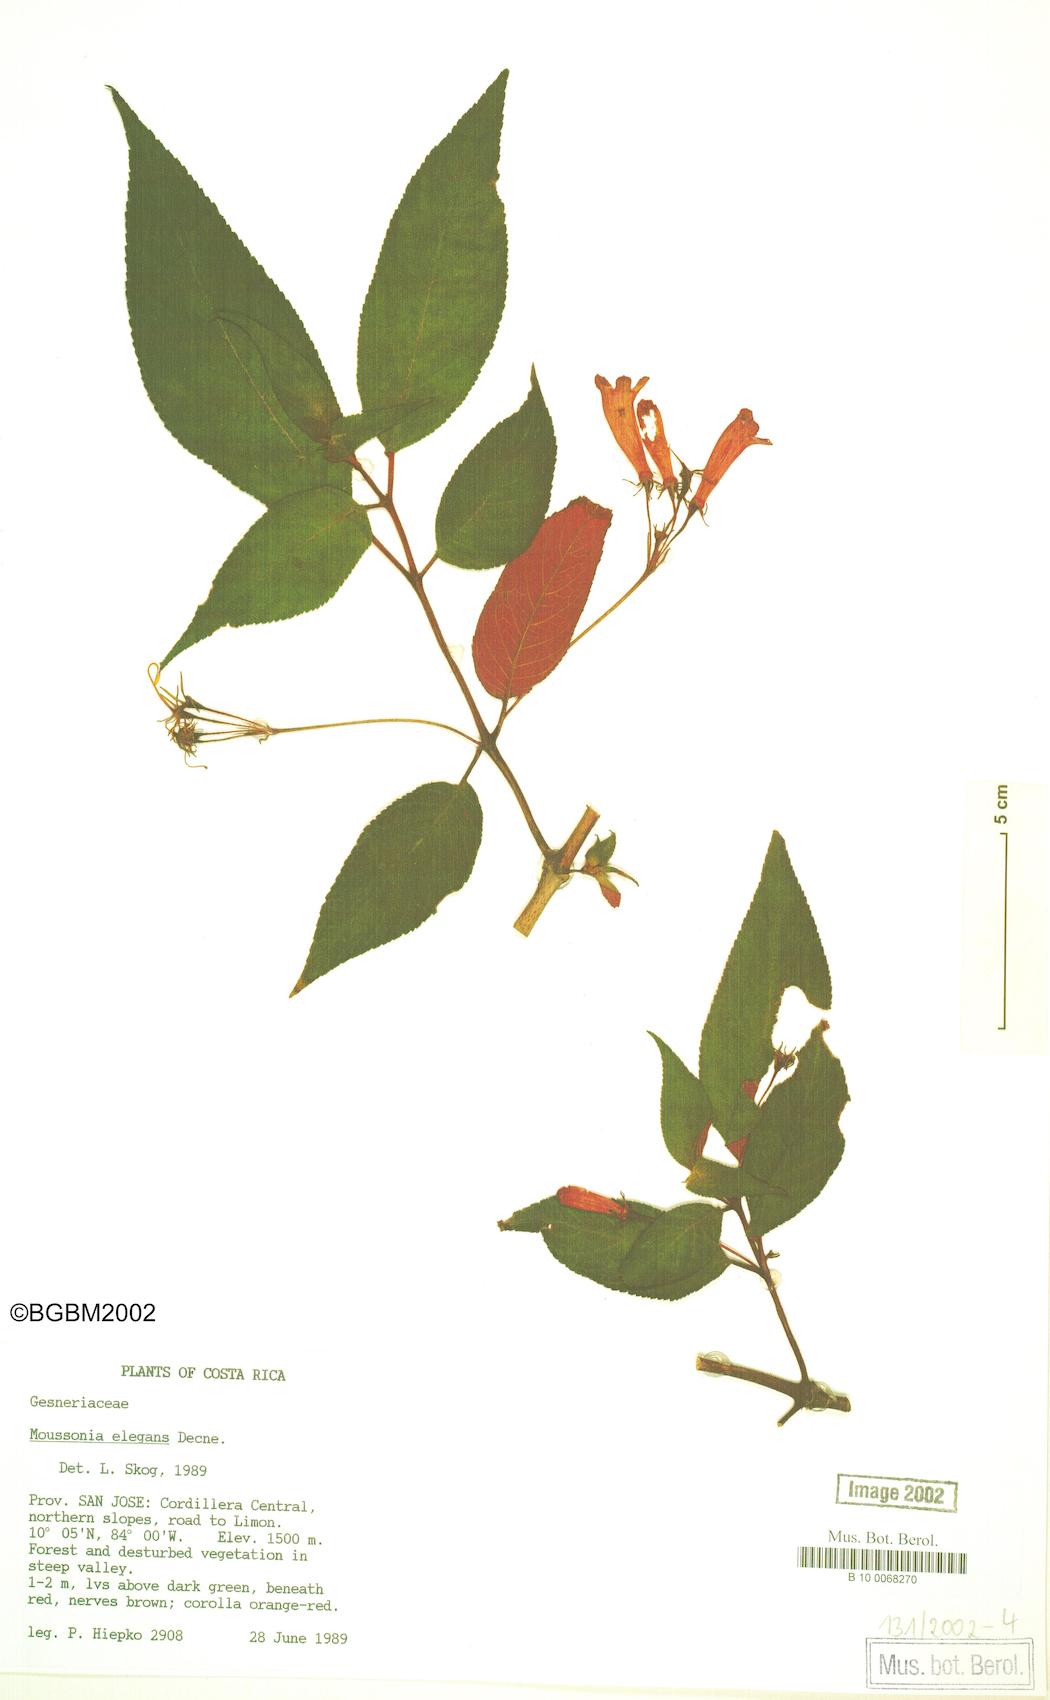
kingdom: Plantae
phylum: Tracheophyta
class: Magnoliopsida
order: Lamiales
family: Gesneriaceae
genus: Moussonia
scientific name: Moussonia elegans
